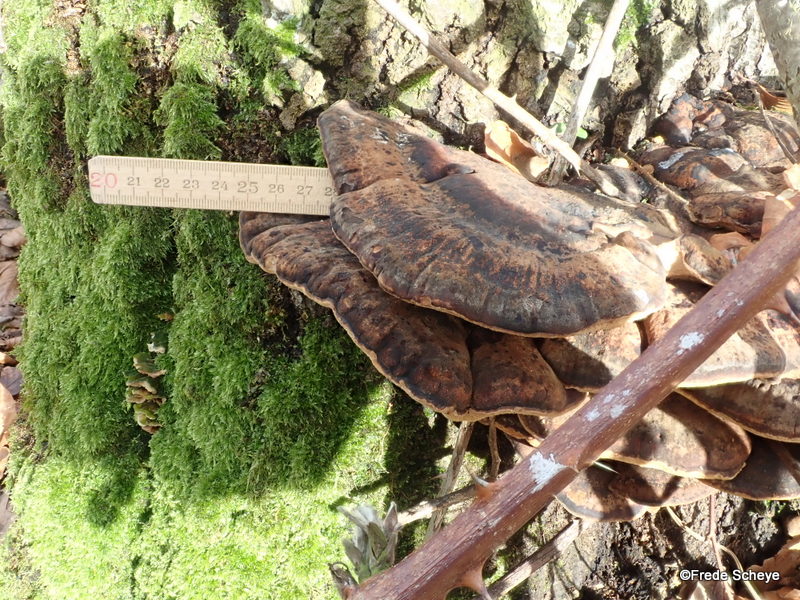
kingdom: Fungi
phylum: Basidiomycota
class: Agaricomycetes
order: Polyporales
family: Ischnodermataceae
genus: Ischnoderma
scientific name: Ischnoderma resinosum
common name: løv-tjæreporesvamp
